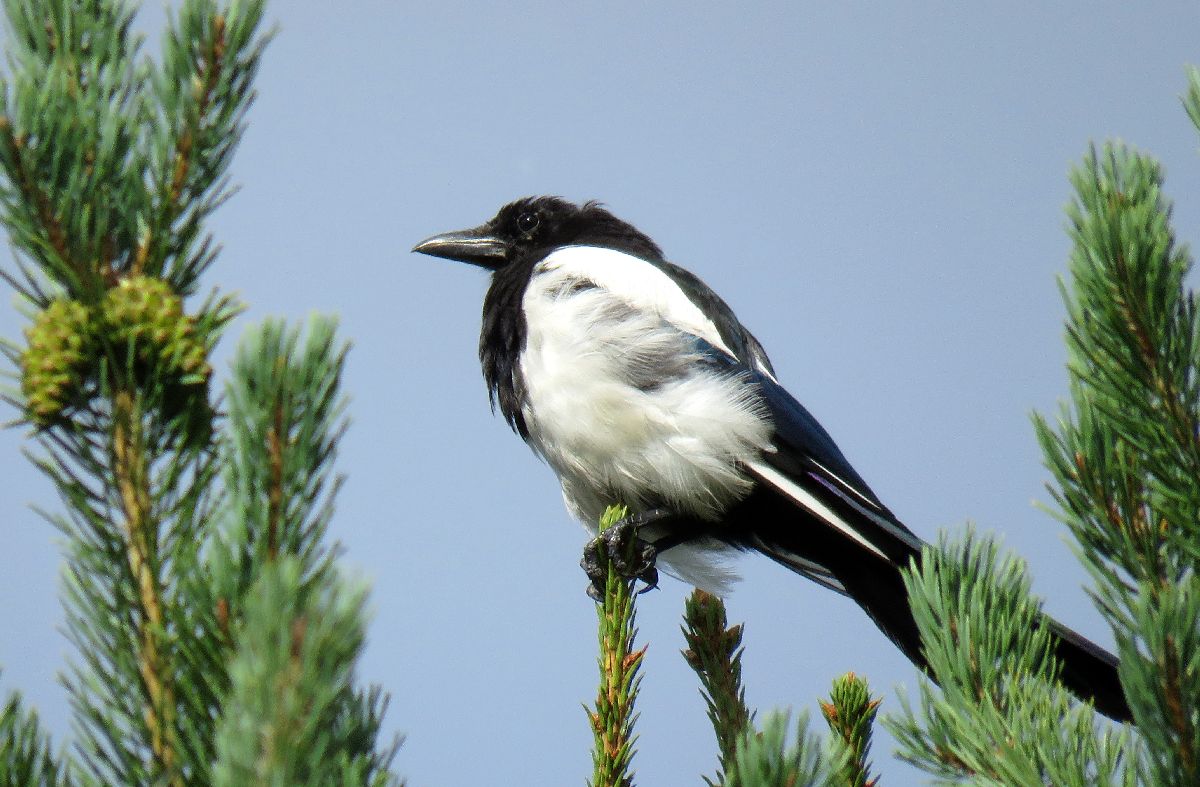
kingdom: Animalia
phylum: Chordata
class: Aves
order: Passeriformes
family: Corvidae
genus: Pica
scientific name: Pica pica
